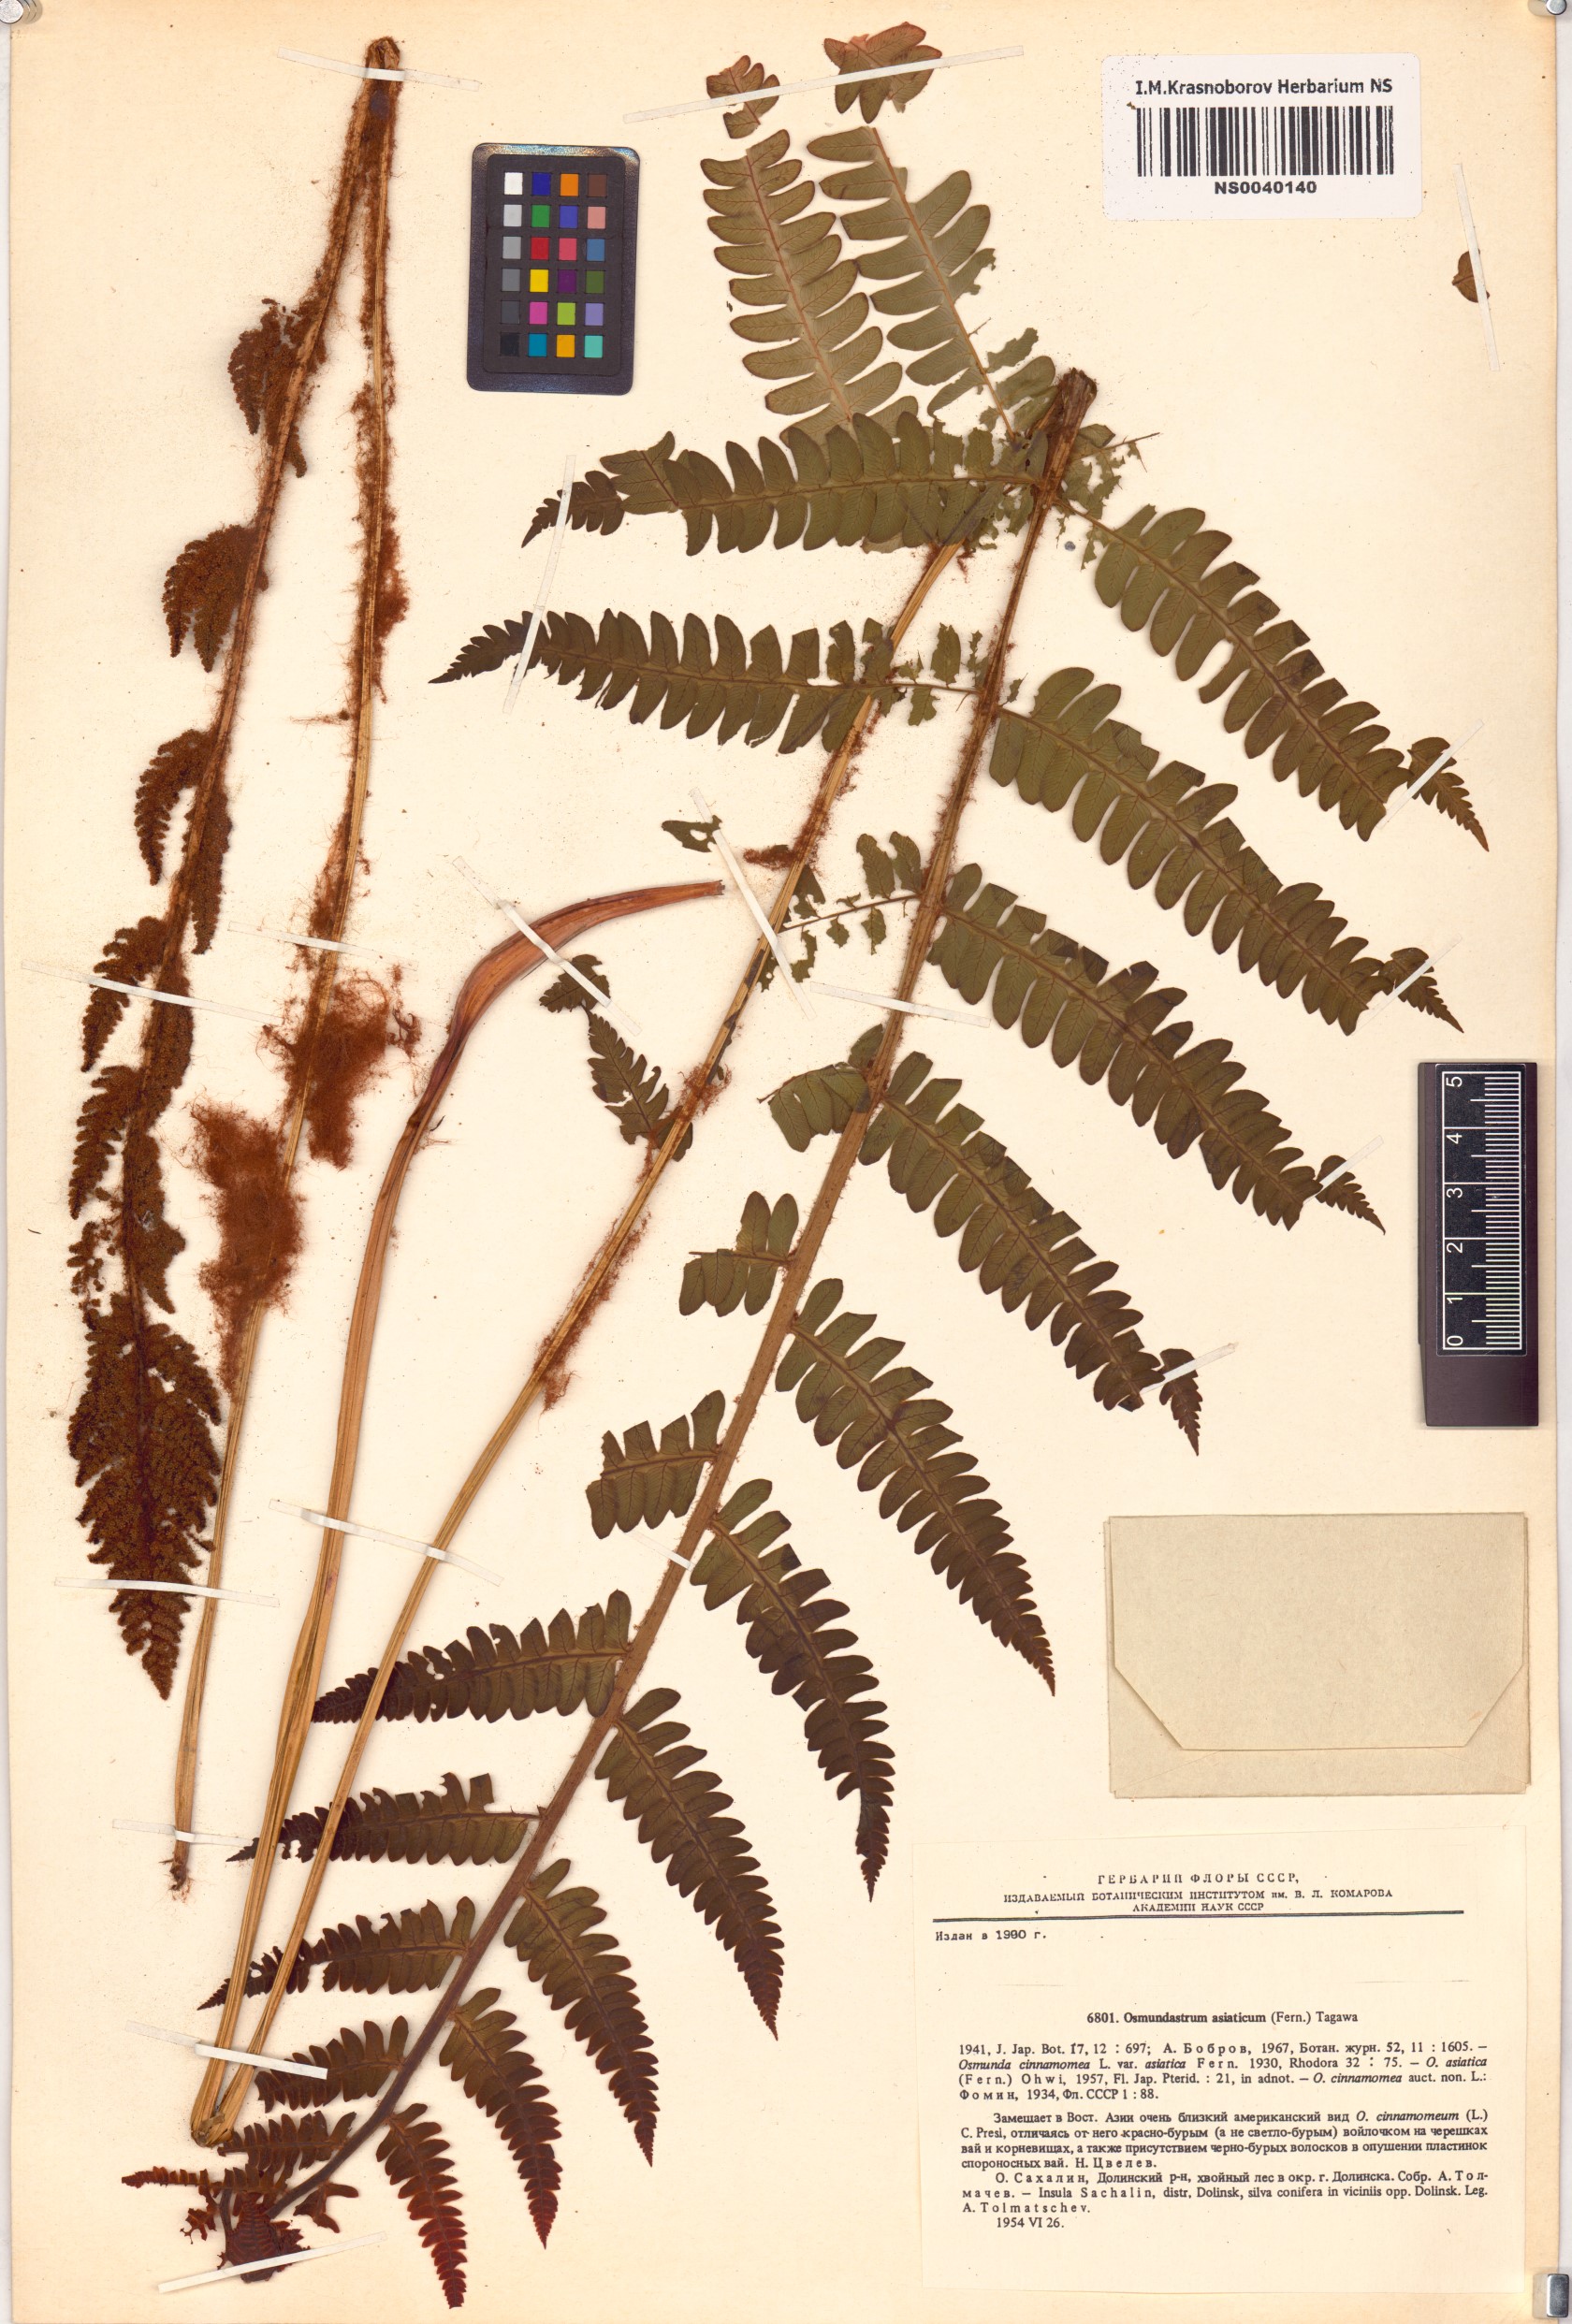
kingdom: Plantae
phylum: Tracheophyta
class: Polypodiopsida
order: Osmundales
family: Osmundaceae
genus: Osmundastrum
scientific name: Osmundastrum cinnamomeum
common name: Cinnamon fern
